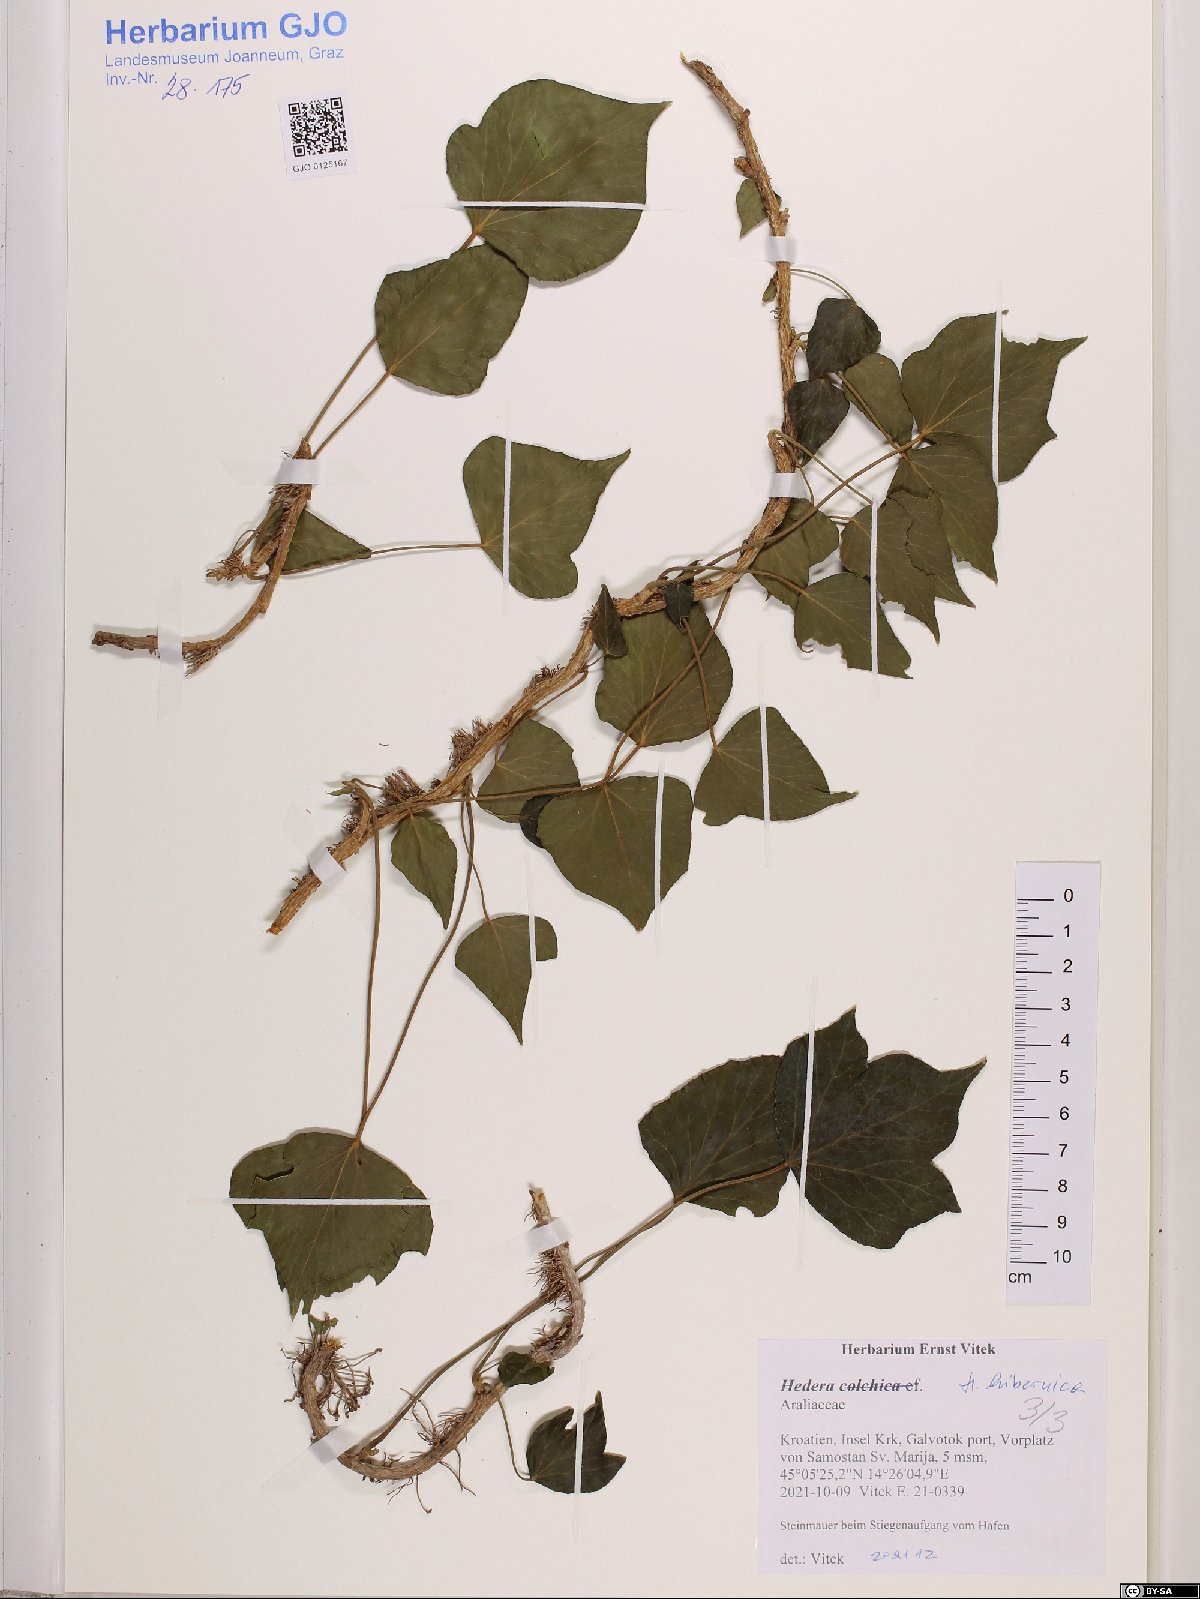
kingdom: Plantae
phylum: Tracheophyta
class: Magnoliopsida
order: Apiales
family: Araliaceae
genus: Hedera
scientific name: Hedera hibernica
